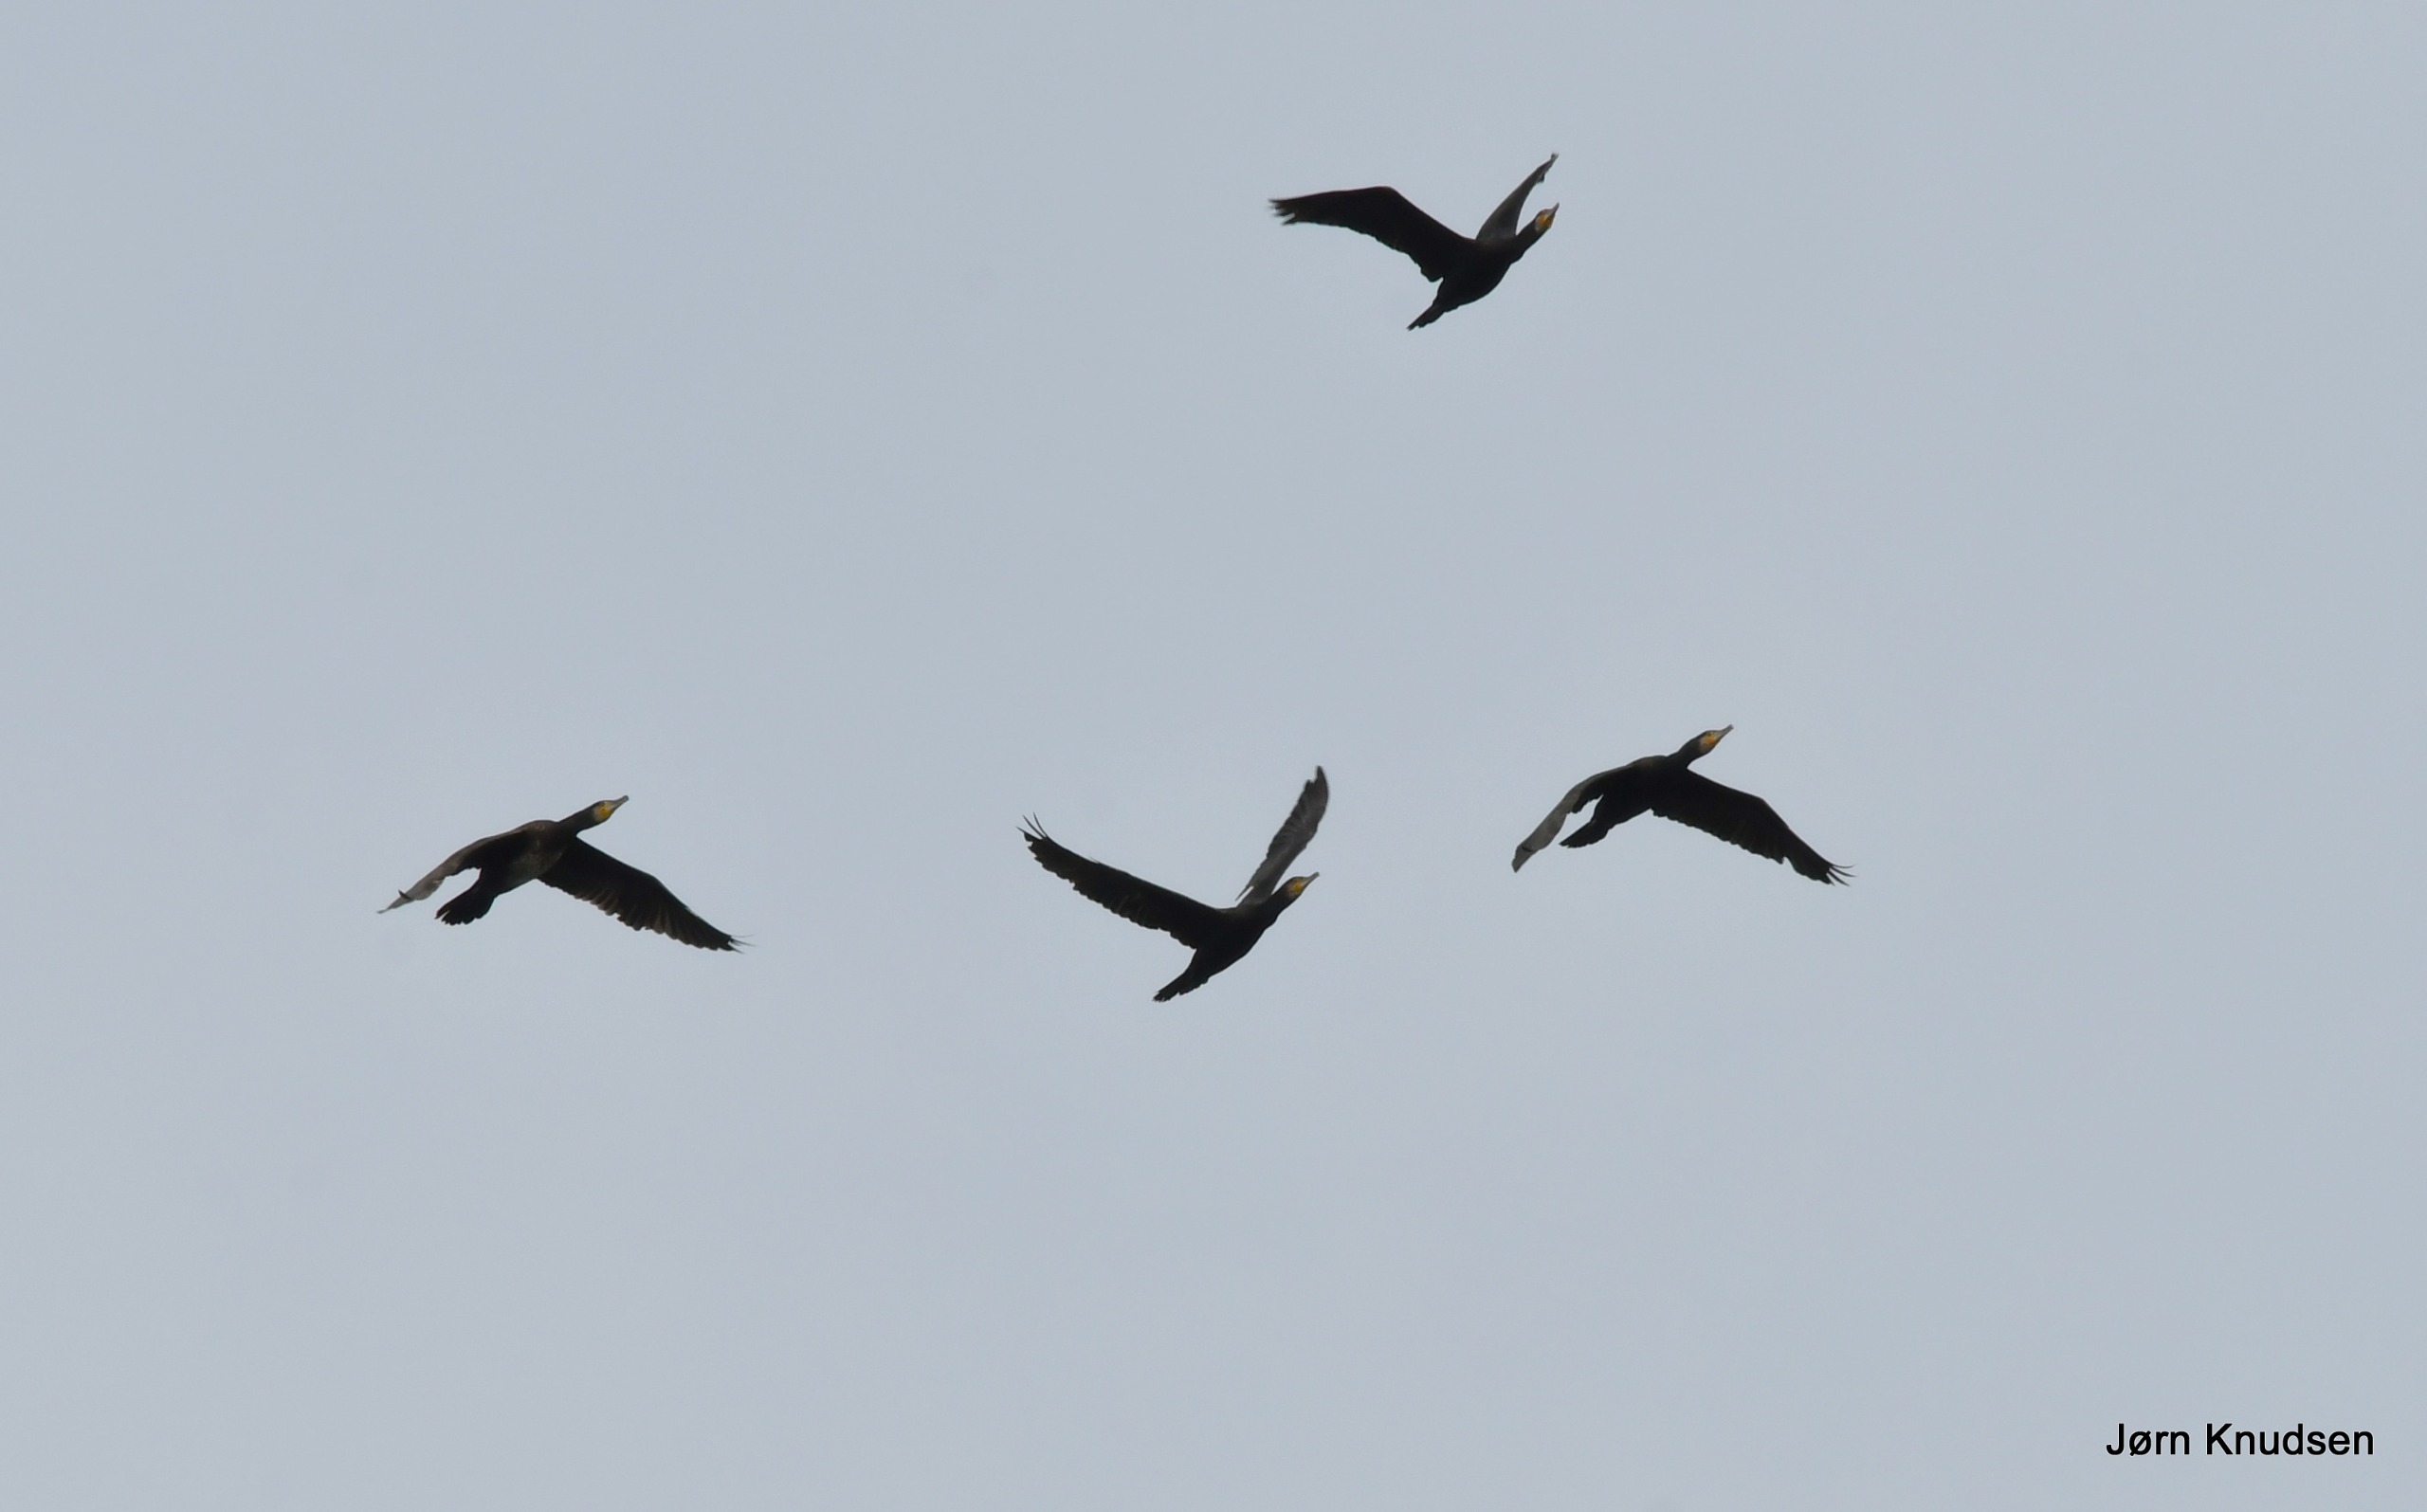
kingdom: Animalia
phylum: Chordata
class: Aves
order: Suliformes
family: Phalacrocoracidae
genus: Phalacrocorax
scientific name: Phalacrocorax carbo
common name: Skarv
